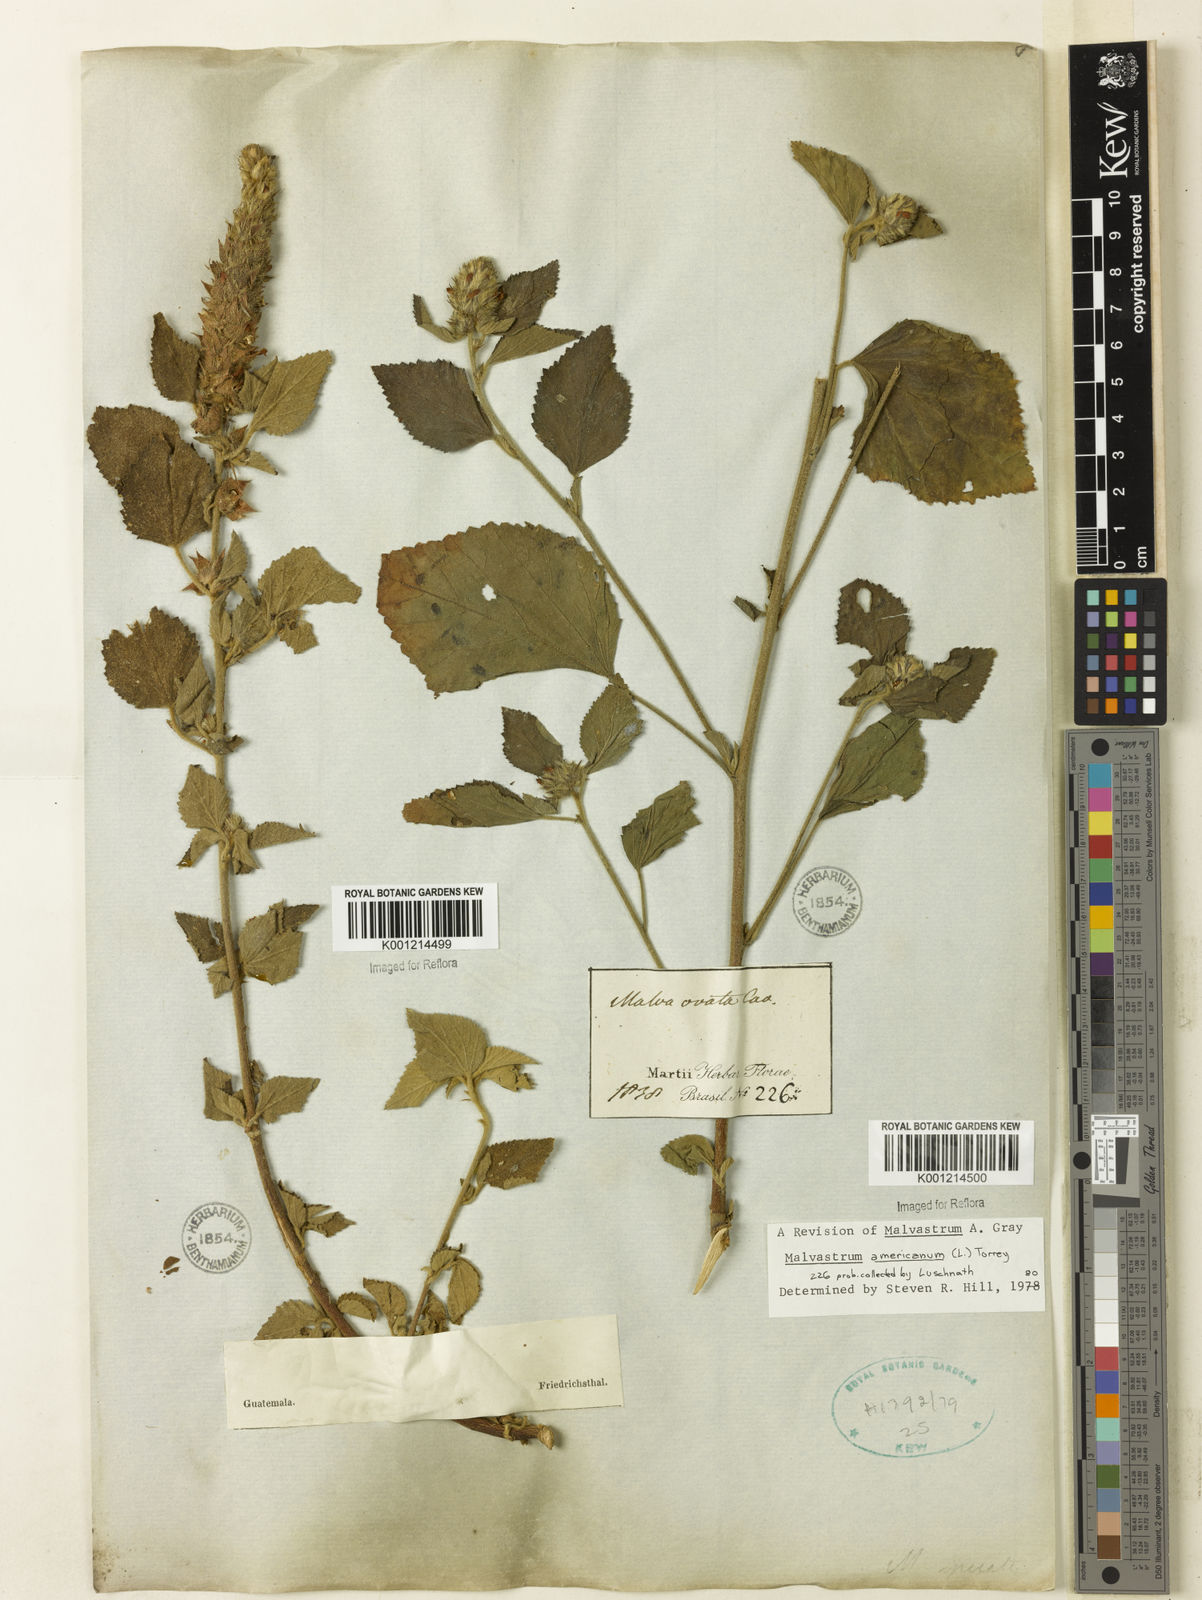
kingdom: Plantae
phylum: Tracheophyta
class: Magnoliopsida
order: Malvales
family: Malvaceae
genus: Malvastrum
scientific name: Malvastrum americanum
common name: Spiked malvastrum
